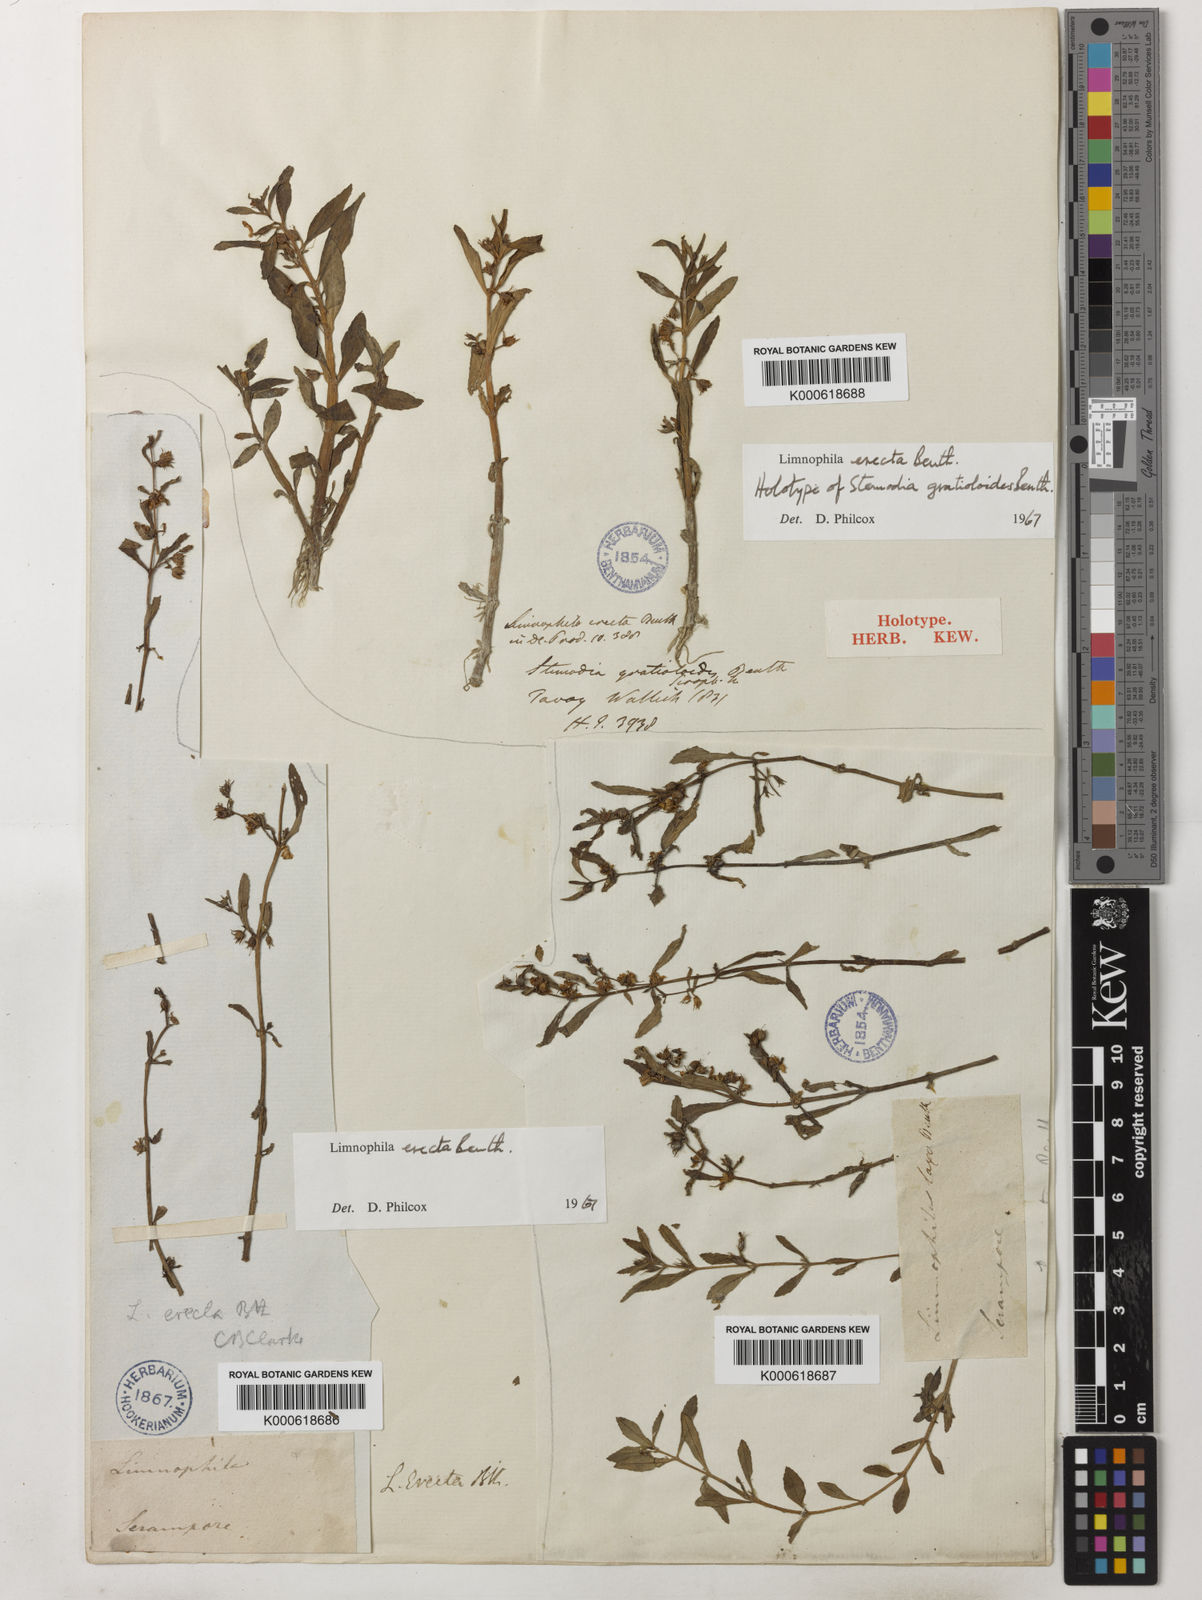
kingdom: Plantae
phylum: Tracheophyta
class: Magnoliopsida
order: Lamiales
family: Plantaginaceae
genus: Limnophila
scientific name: Limnophila erecta
